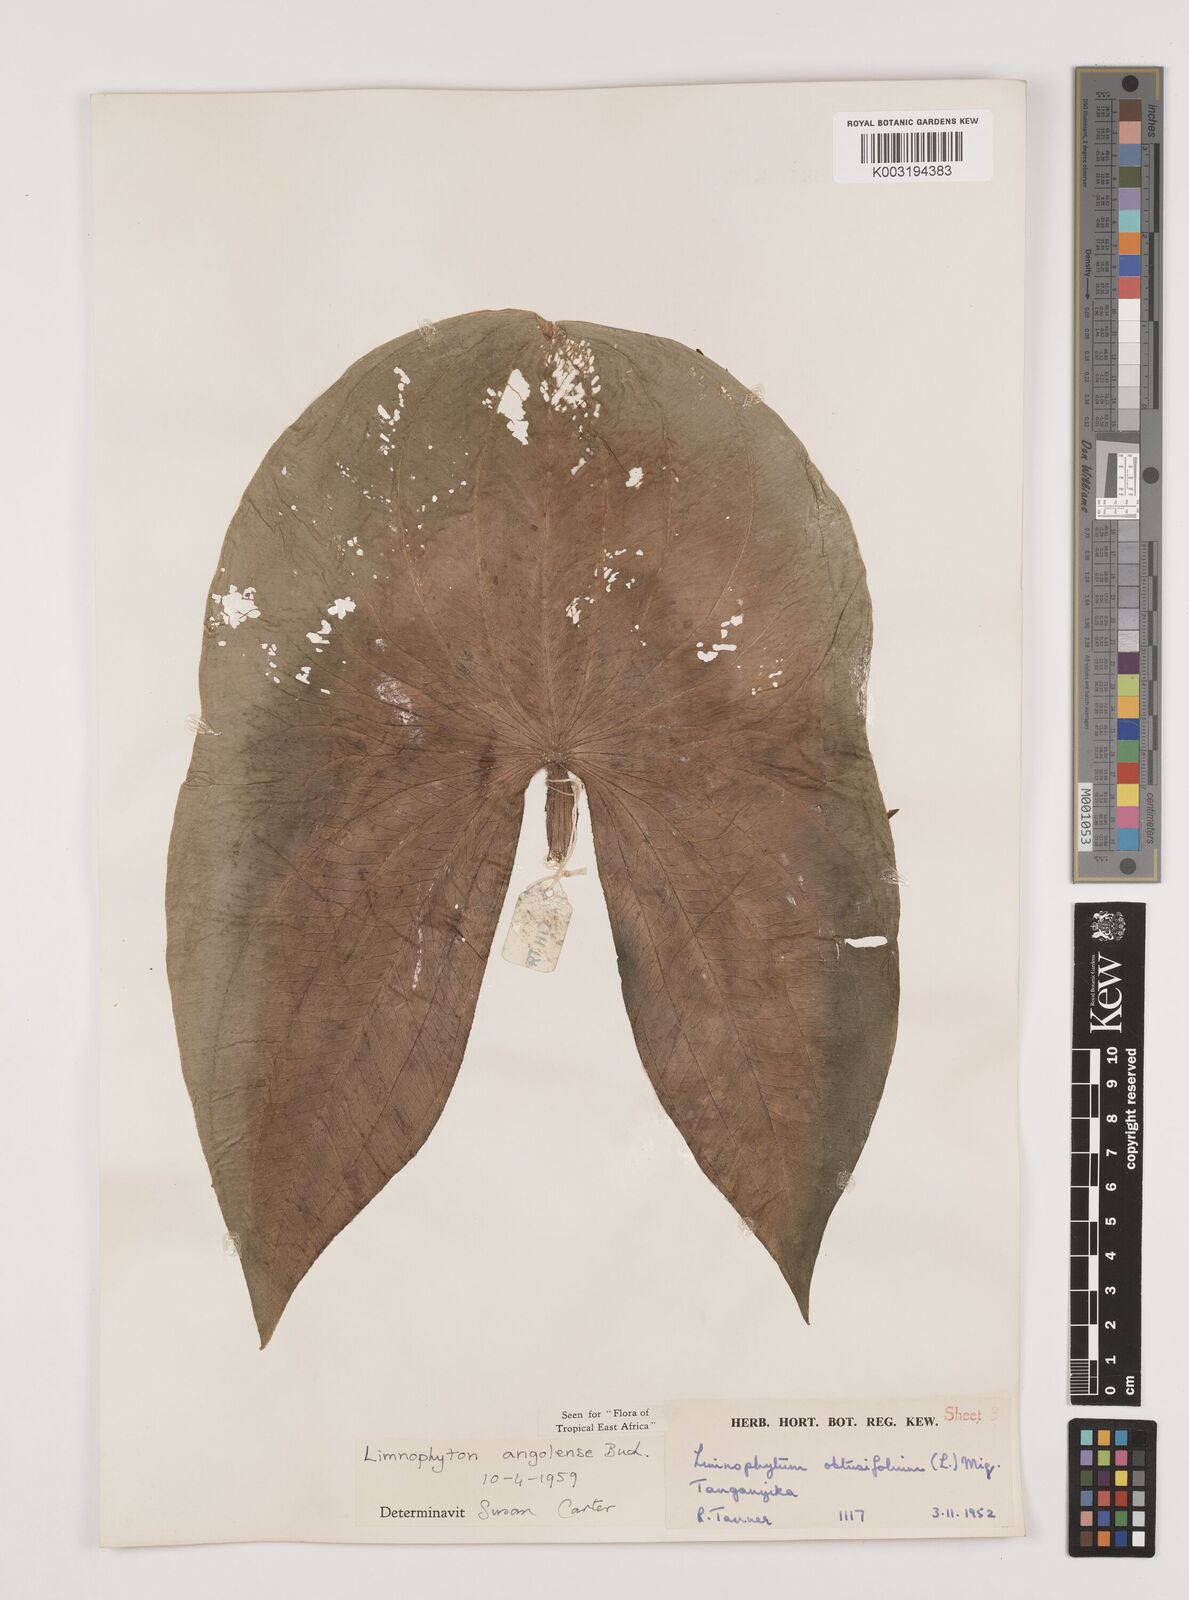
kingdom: Plantae
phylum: Tracheophyta
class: Liliopsida
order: Alismatales
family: Alismataceae
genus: Limnophyton
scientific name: Limnophyton angolense
